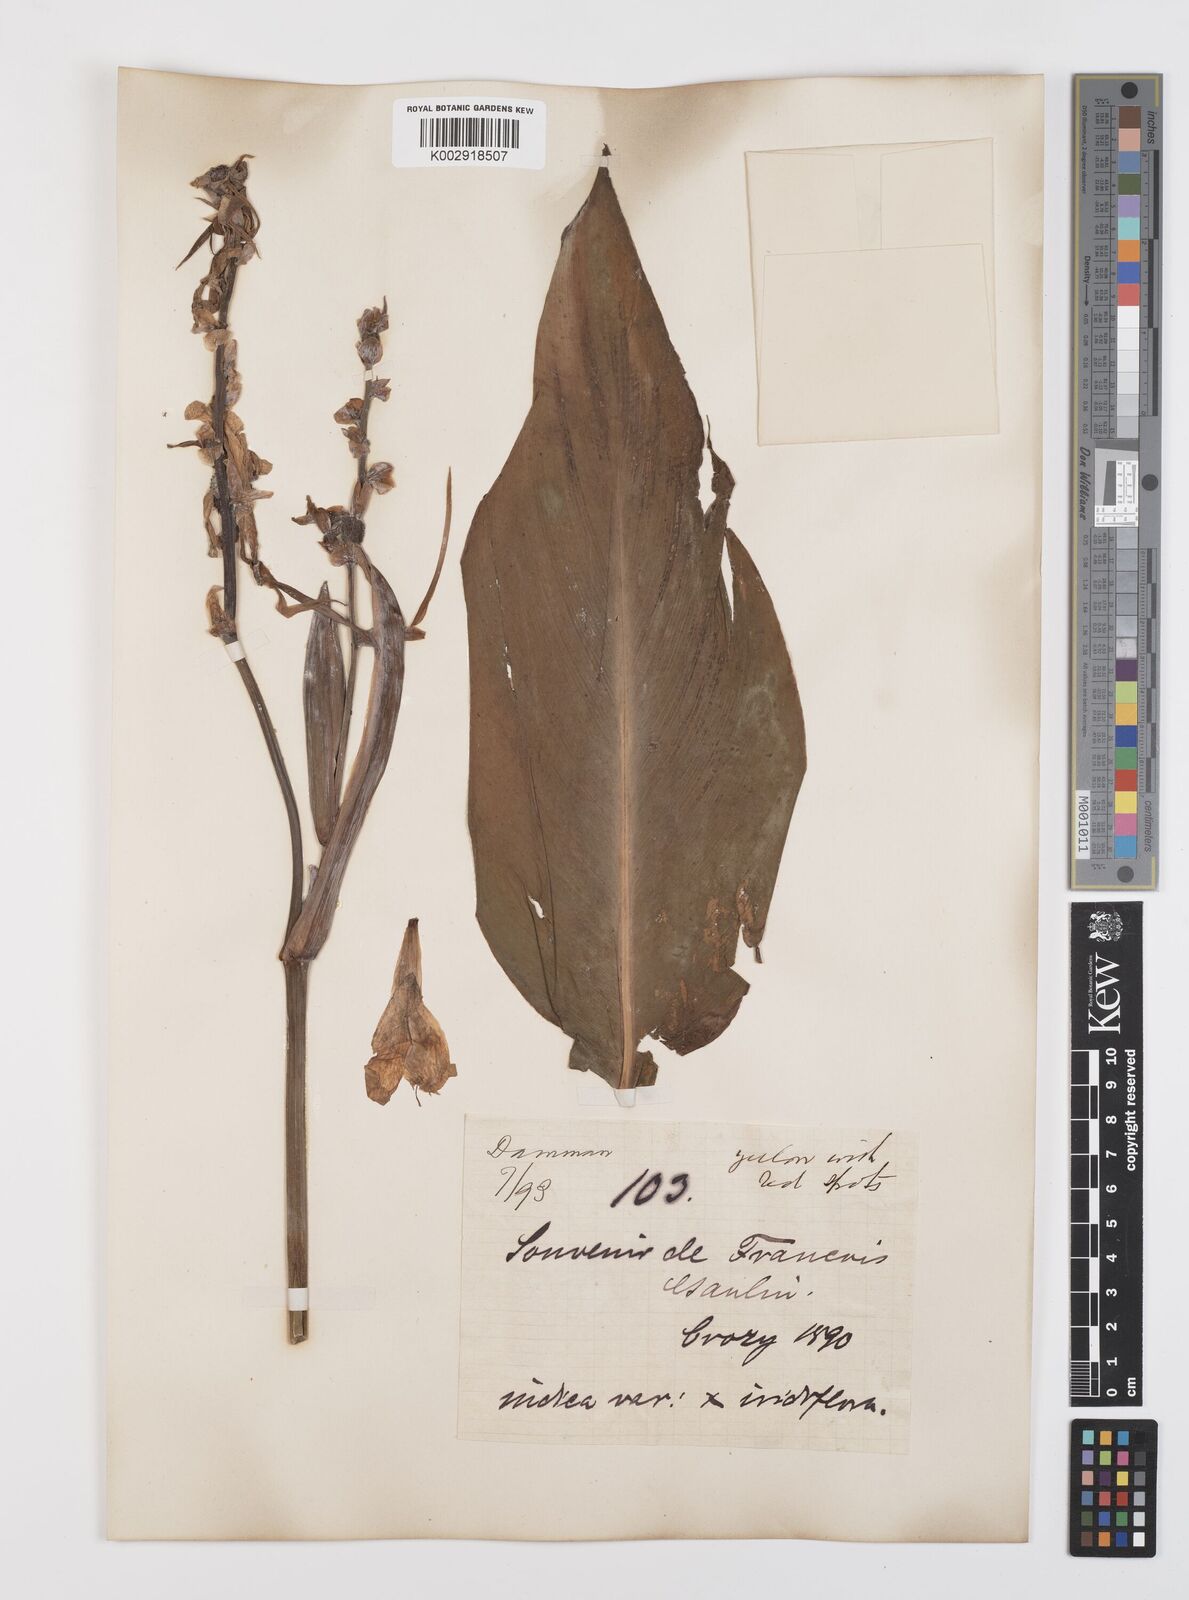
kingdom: Plantae
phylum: Tracheophyta
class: Liliopsida
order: Zingiberales
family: Cannaceae
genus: Canna
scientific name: Canna indica
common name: Indian shot
